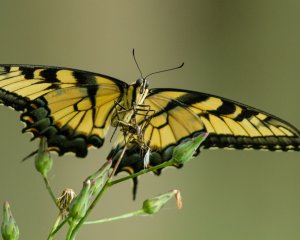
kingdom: Animalia
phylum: Arthropoda
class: Insecta
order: Lepidoptera
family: Papilionidae
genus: Pterourus
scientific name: Pterourus glaucus
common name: Eastern Tiger Swallowtail
